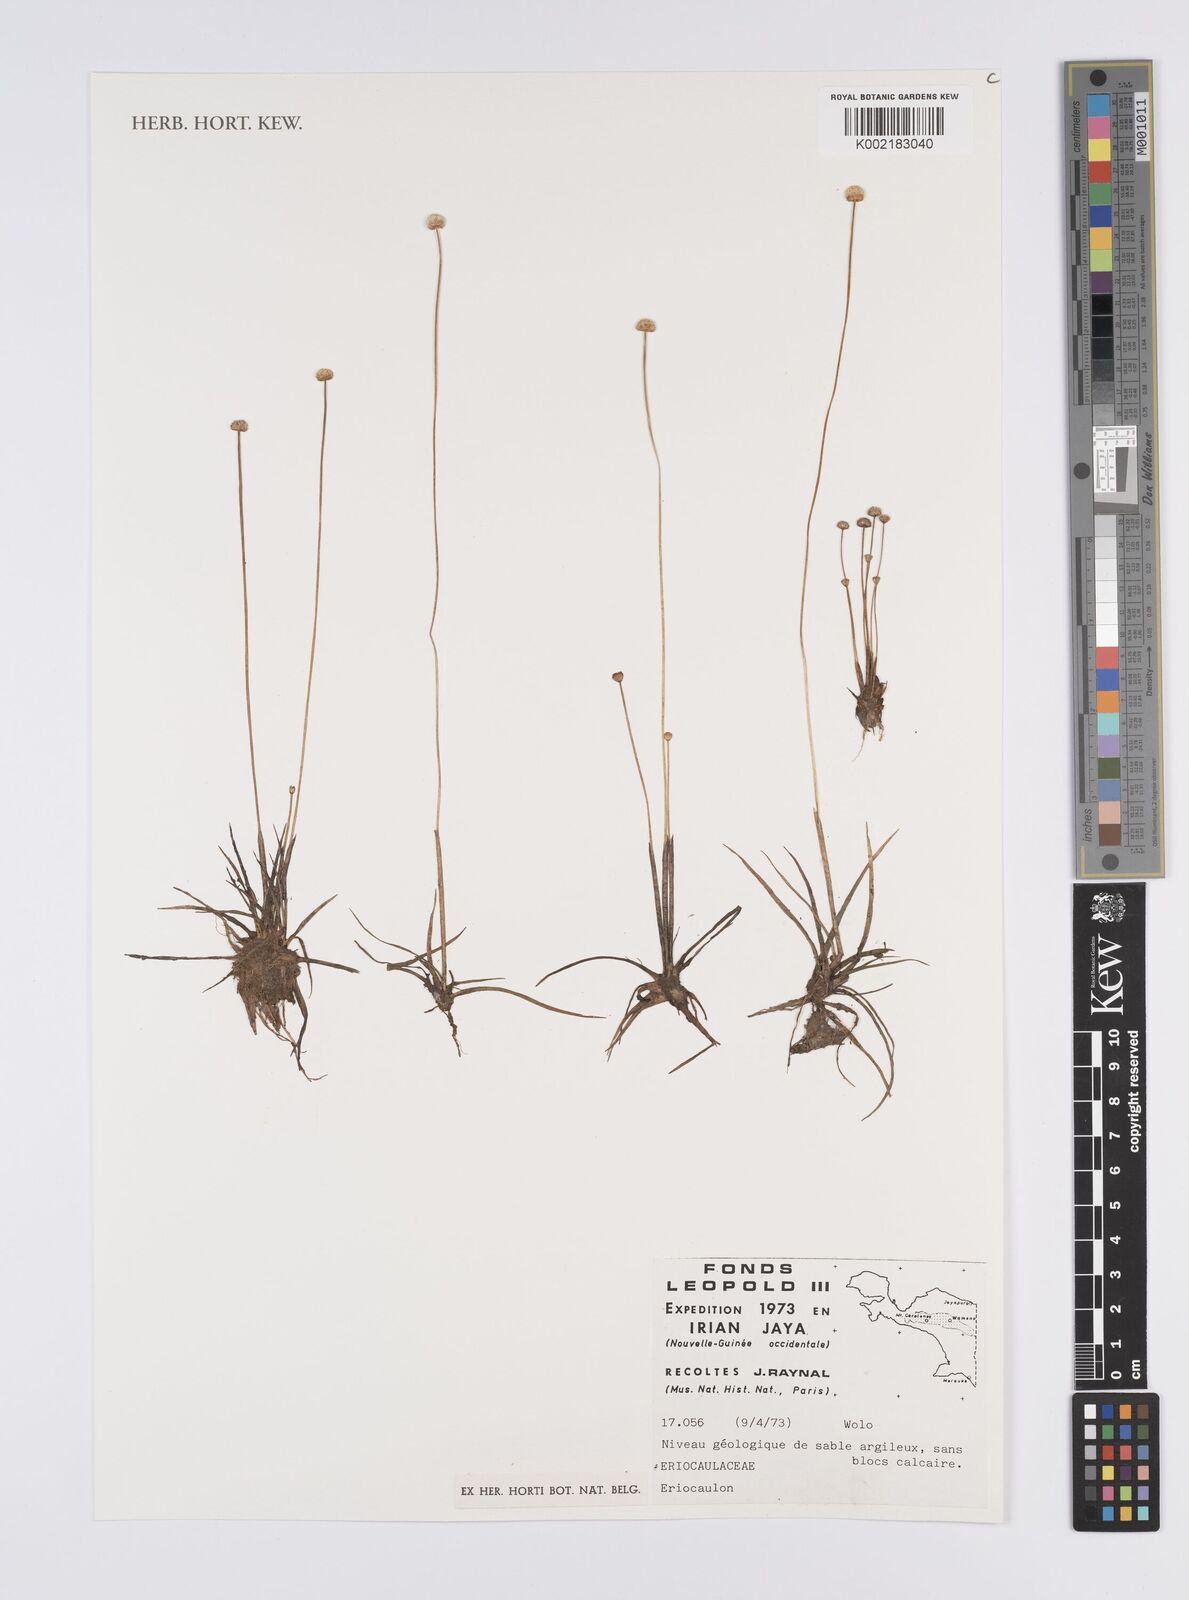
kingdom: Plantae
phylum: Tracheophyta
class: Liliopsida
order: Poales
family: Eriocaulaceae
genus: Eriocaulon
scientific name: Eriocaulon
